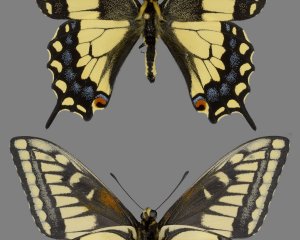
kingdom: Animalia
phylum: Arthropoda
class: Insecta
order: Lepidoptera
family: Papilionidae
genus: Papilio
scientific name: Papilio machaon
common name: Old World Swallowtail
